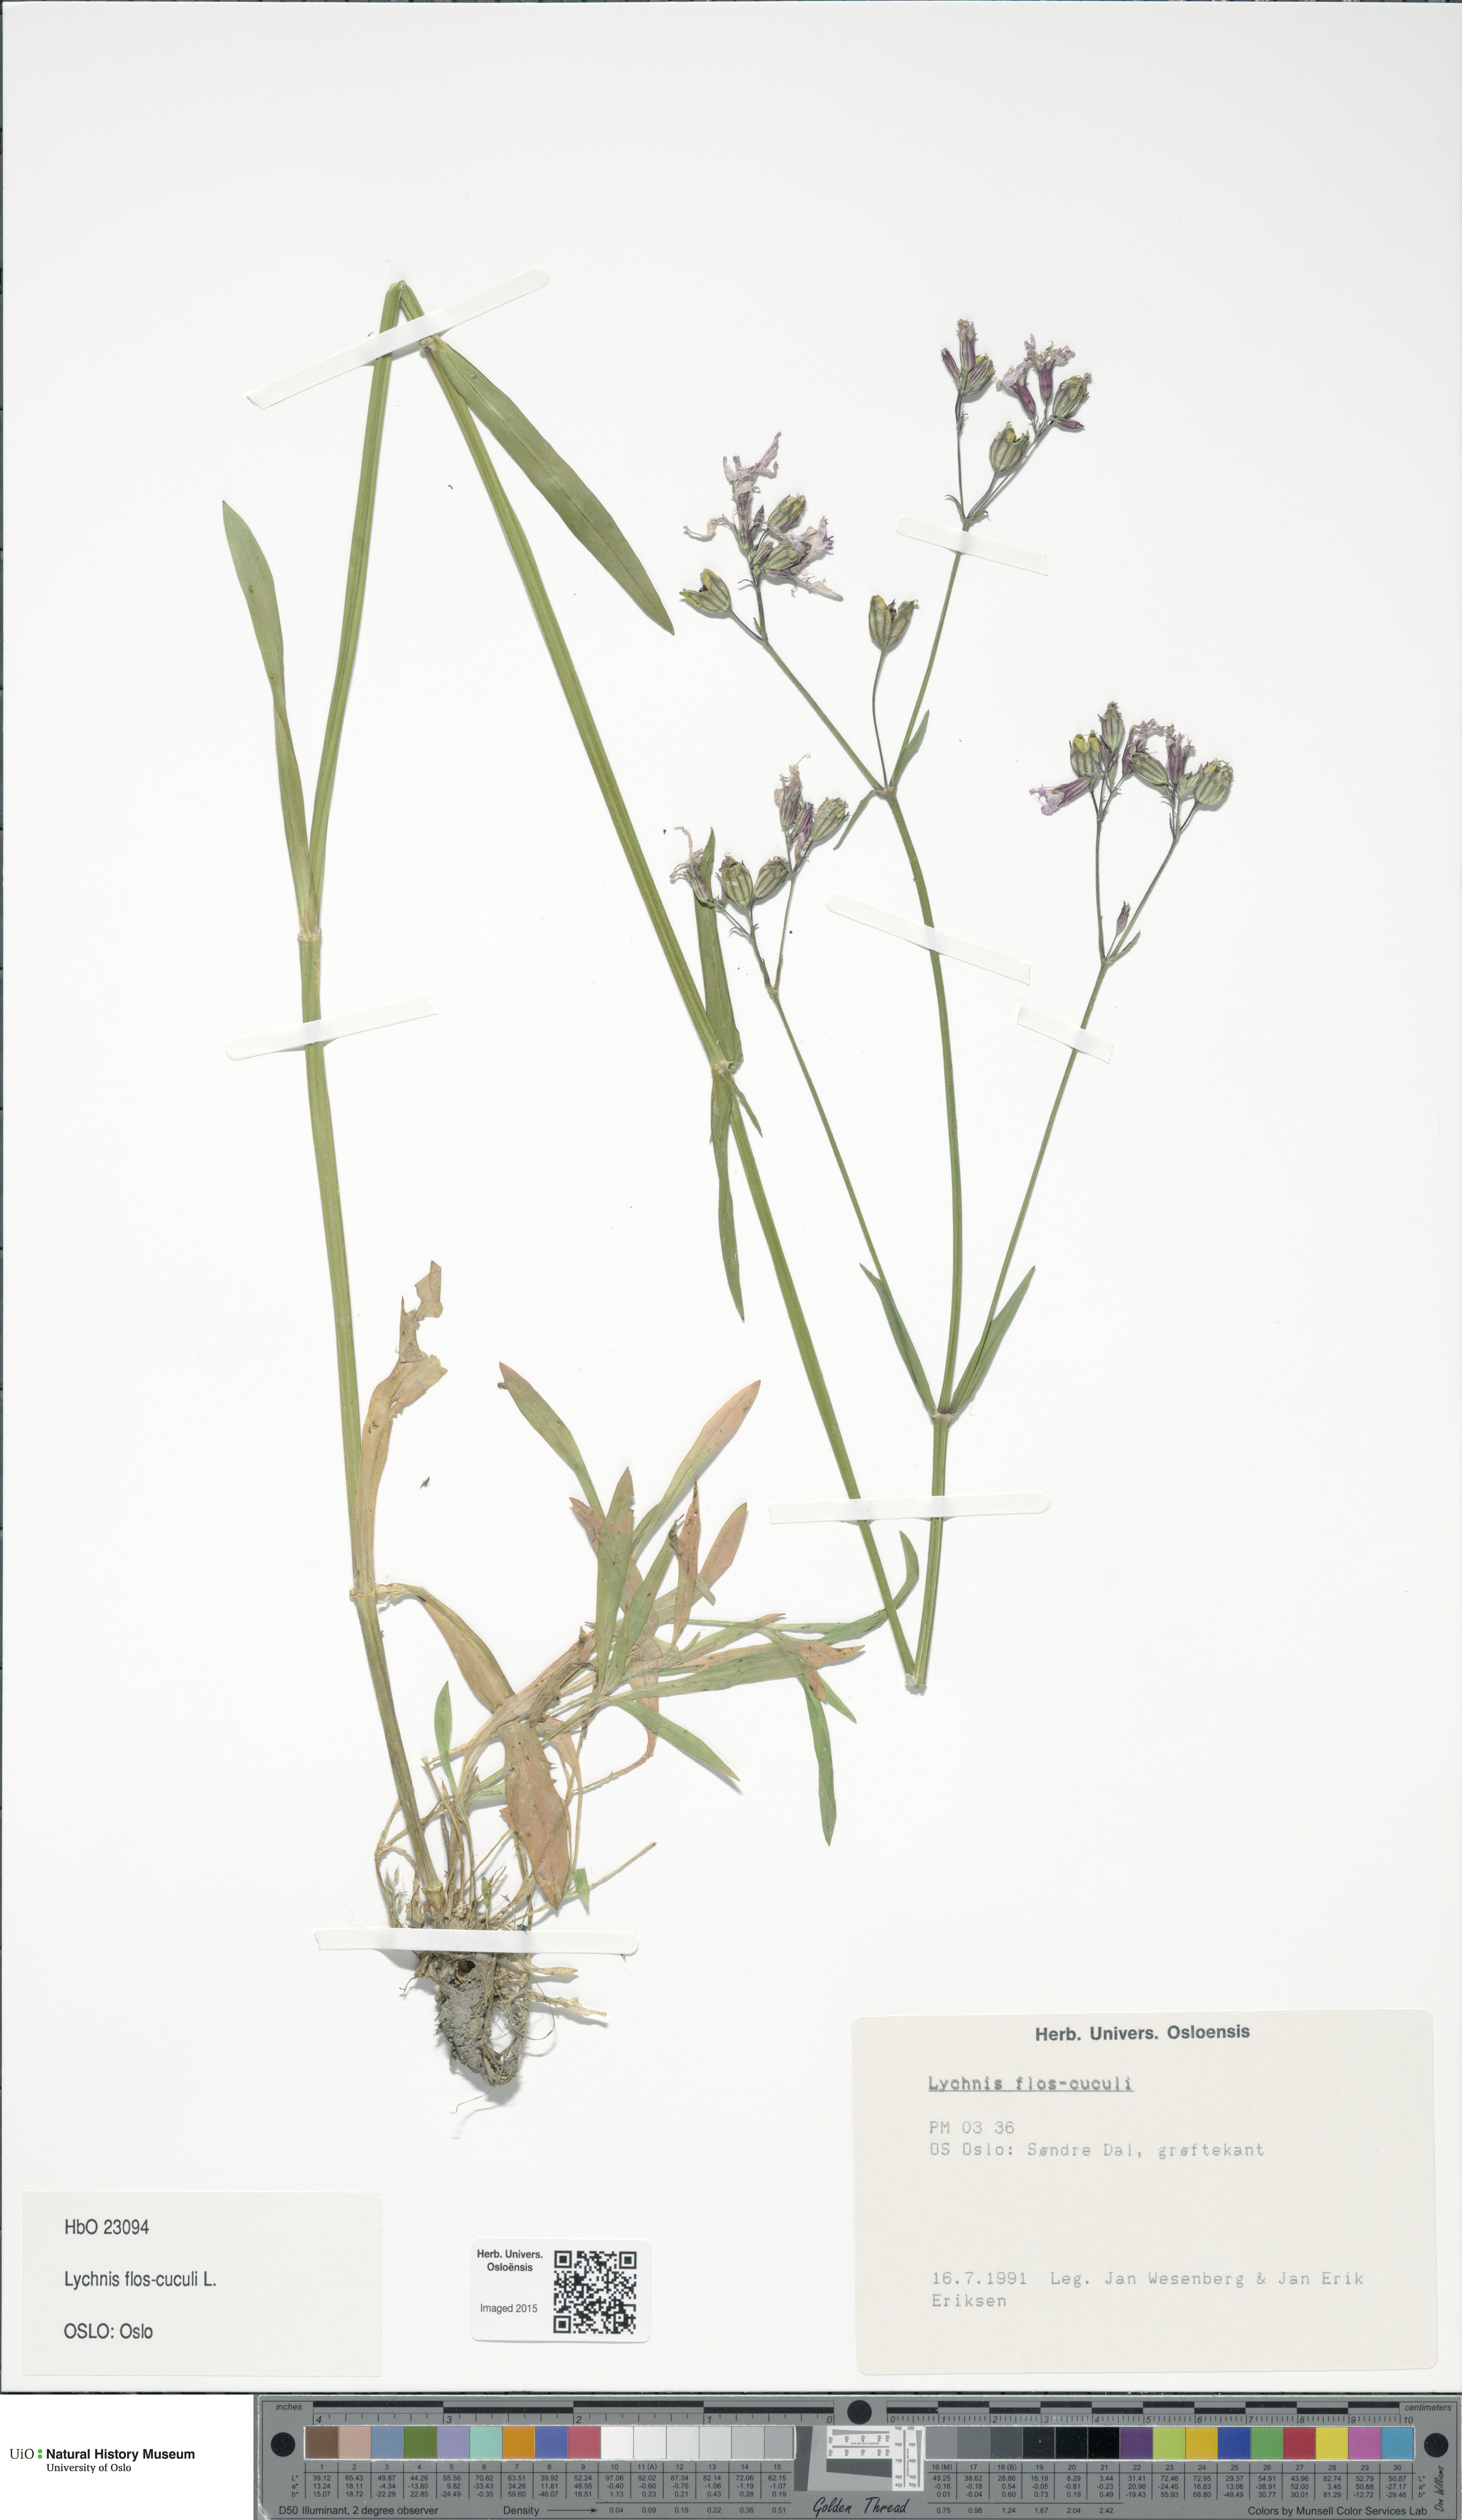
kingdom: Plantae
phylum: Tracheophyta
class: Magnoliopsida
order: Caryophyllales
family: Caryophyllaceae
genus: Silene
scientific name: Silene flos-cuculi
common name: Ragged-robin
